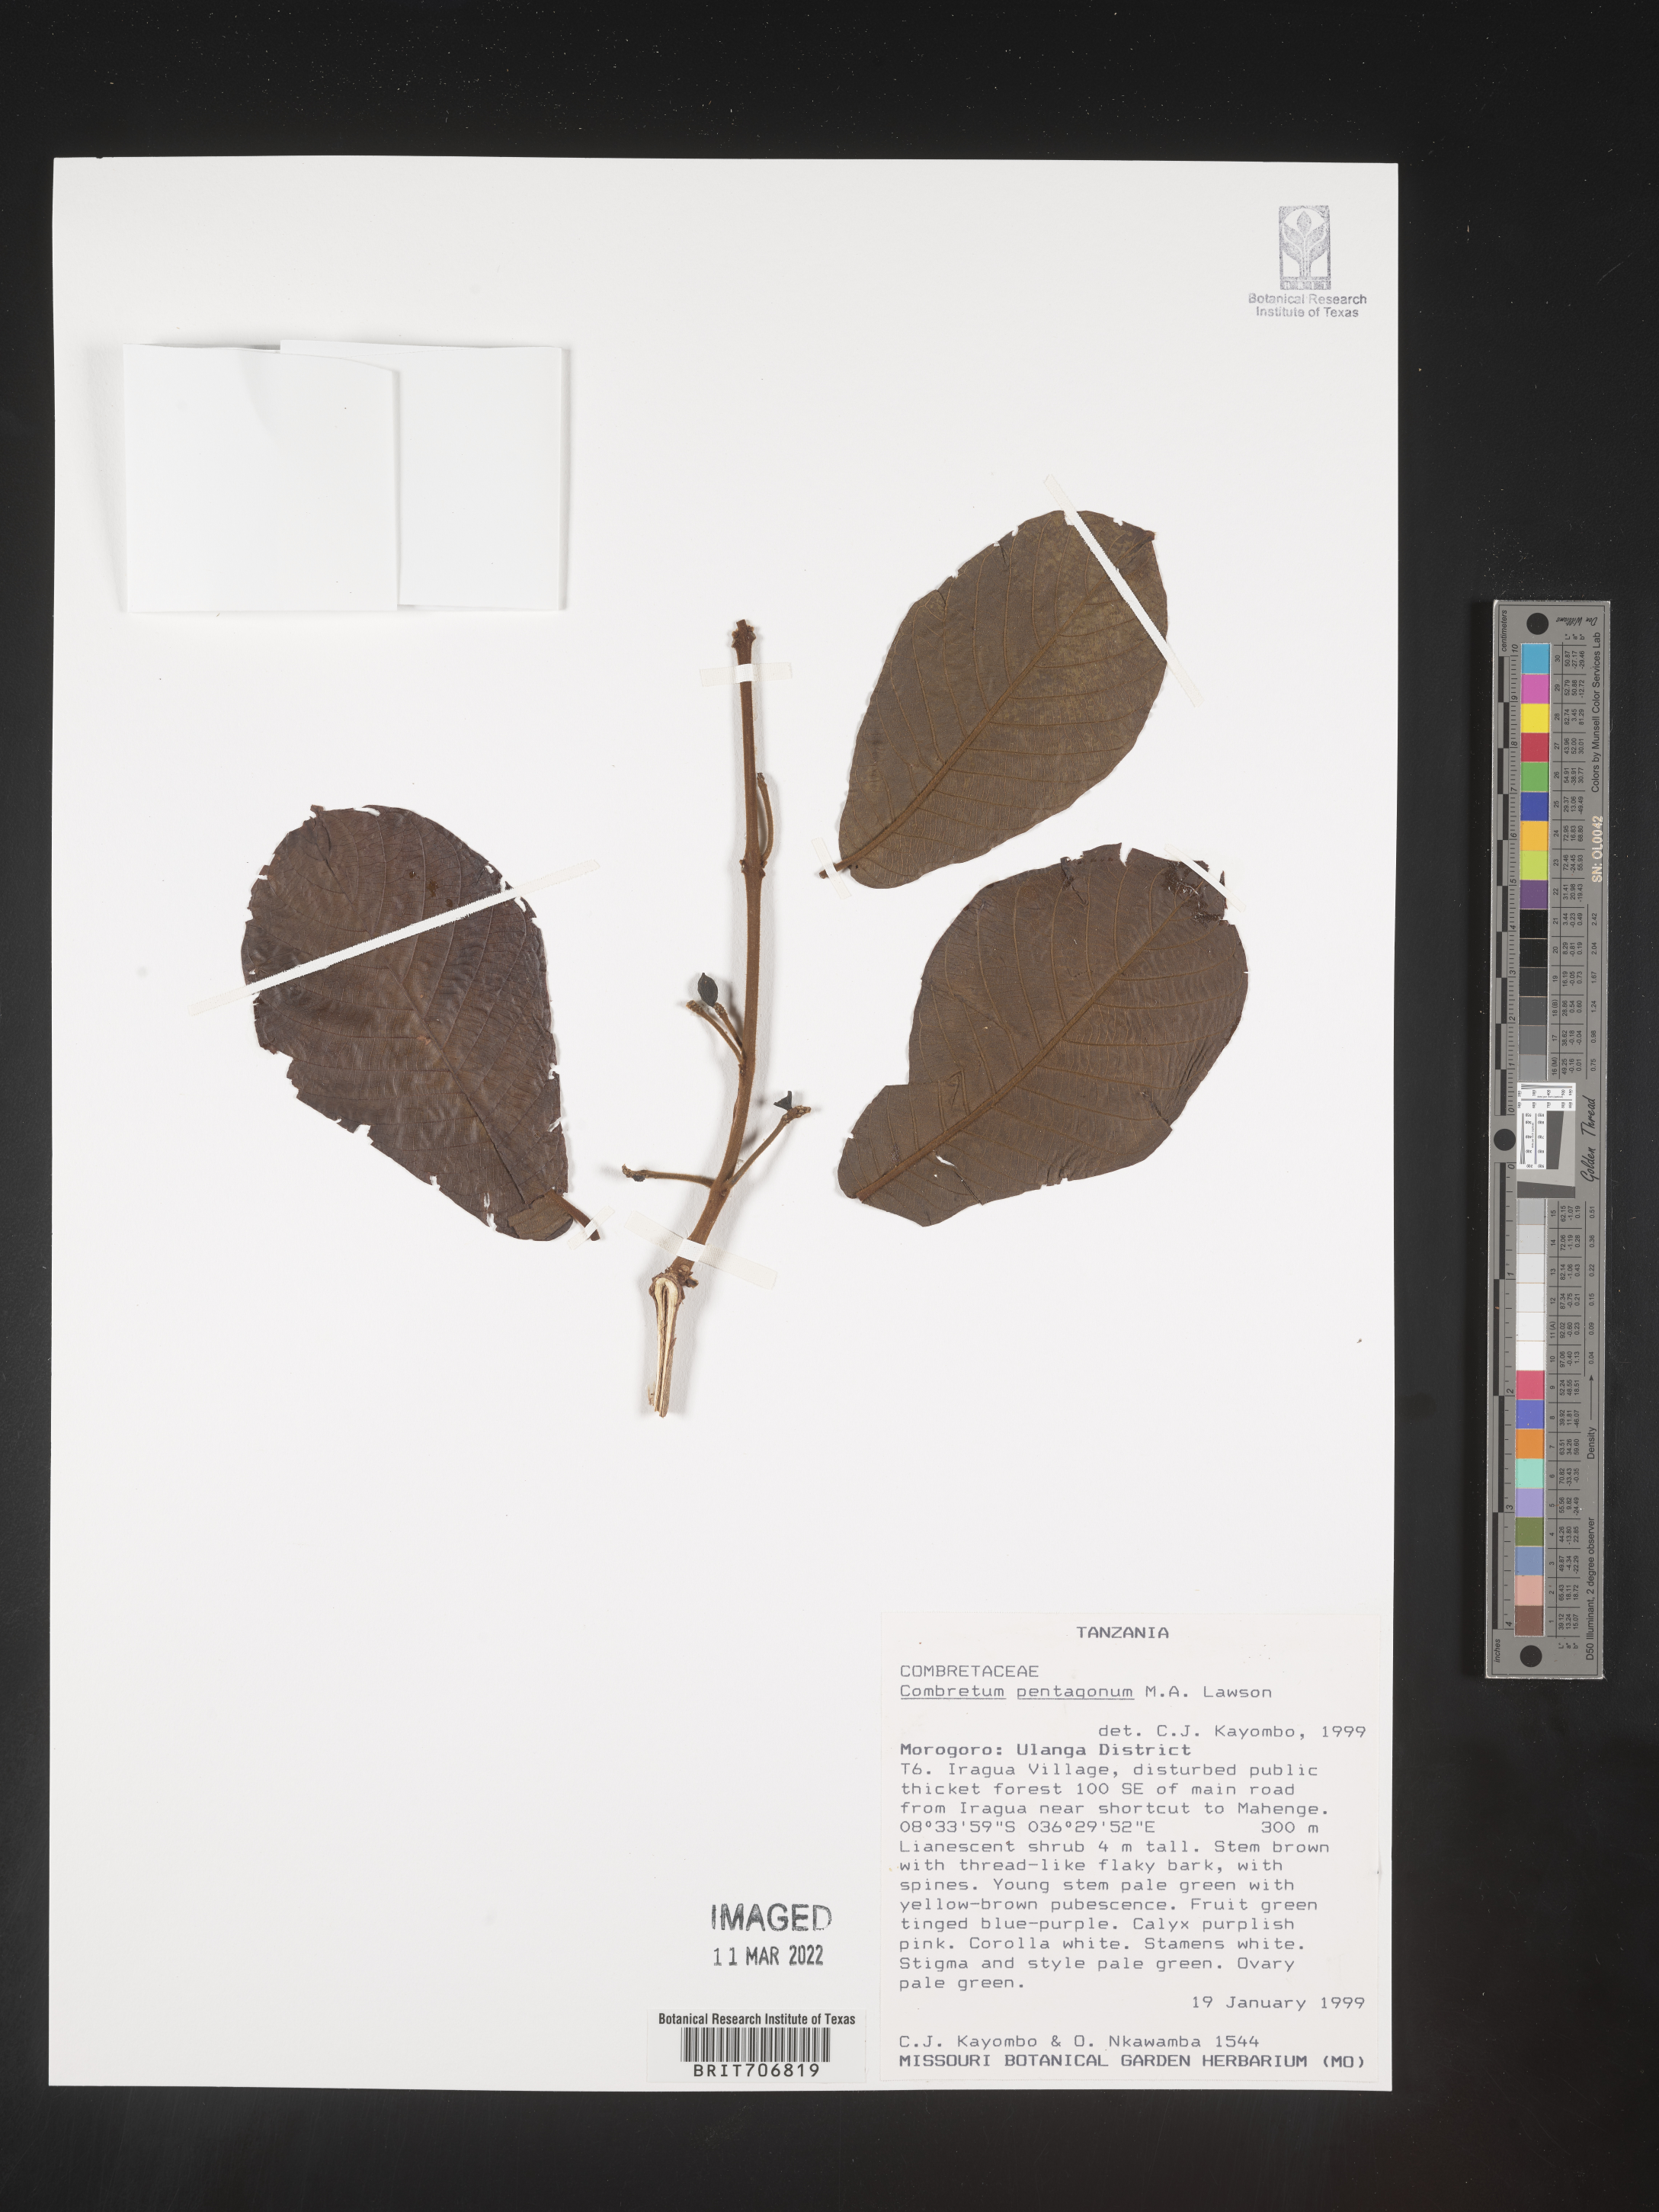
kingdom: Plantae
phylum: Tracheophyta
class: Magnoliopsida
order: Myrtales
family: Combretaceae
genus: Combretum
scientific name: Combretum
